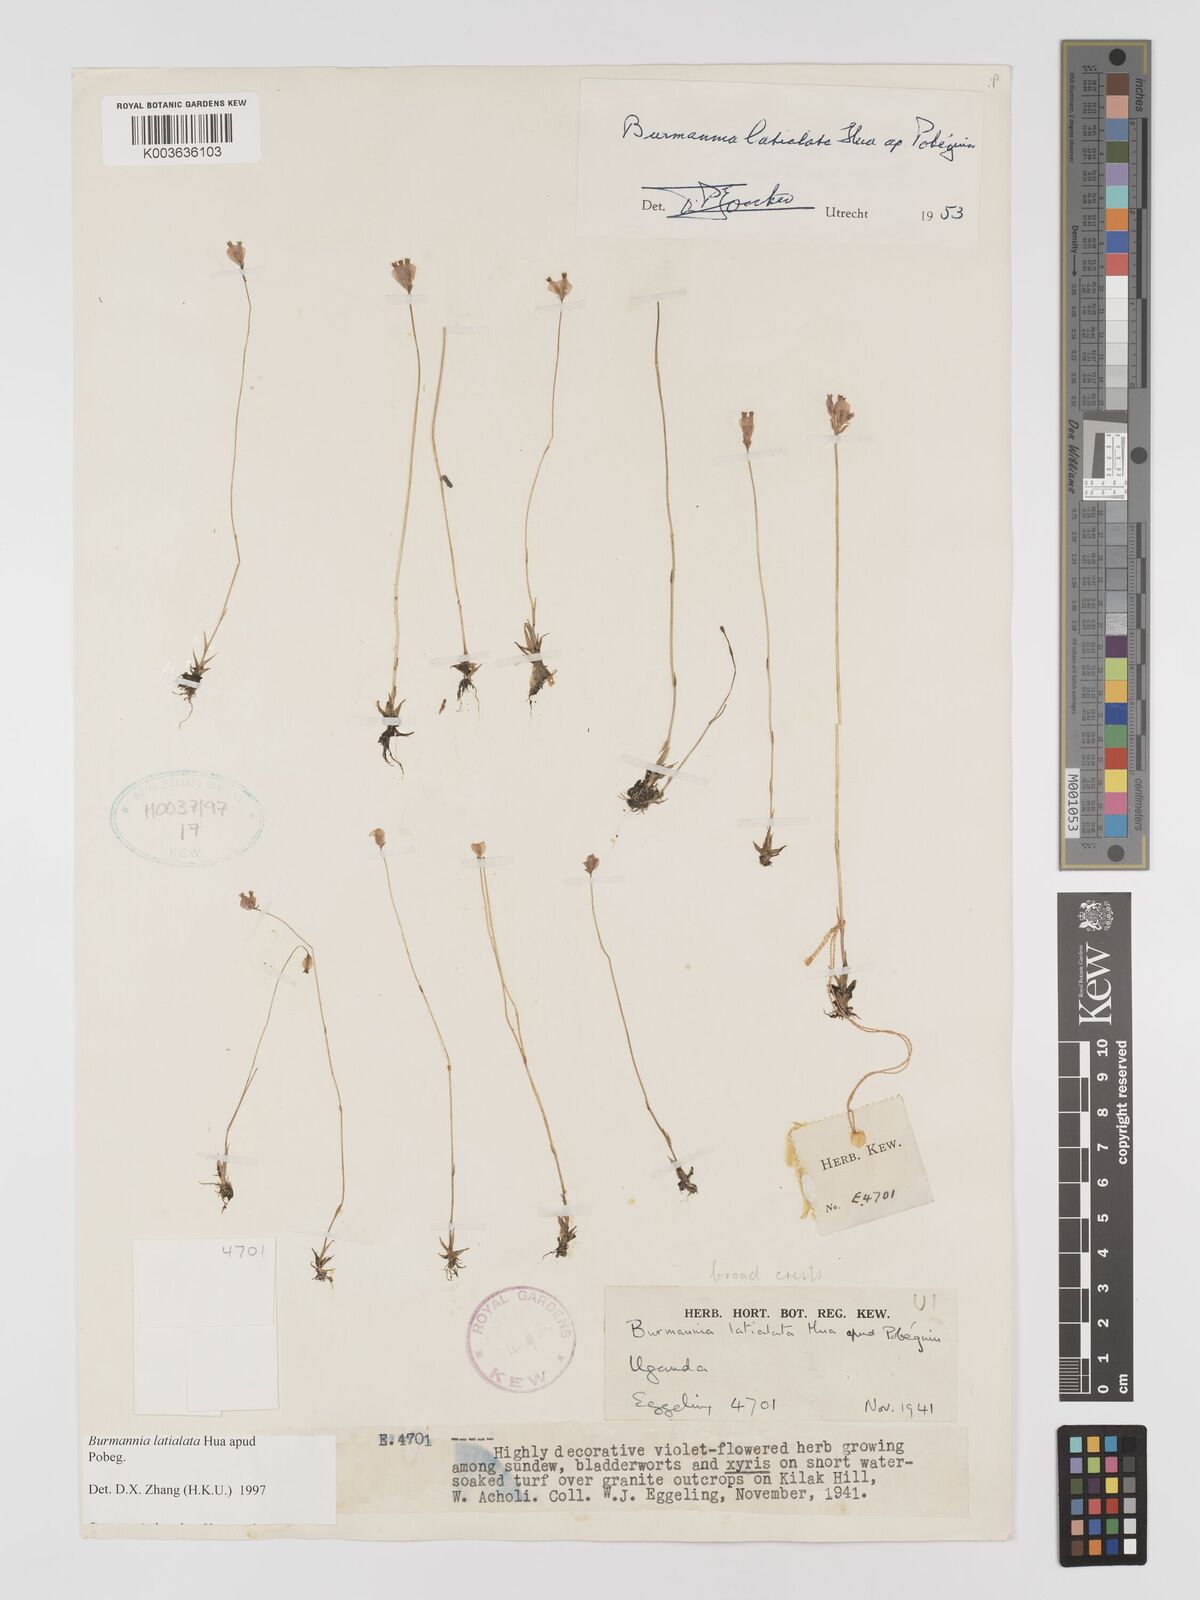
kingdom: Plantae
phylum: Tracheophyta
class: Liliopsida
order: Dioscoreales
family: Burmanniaceae
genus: Burmannia
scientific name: Burmannia madagascariensis
